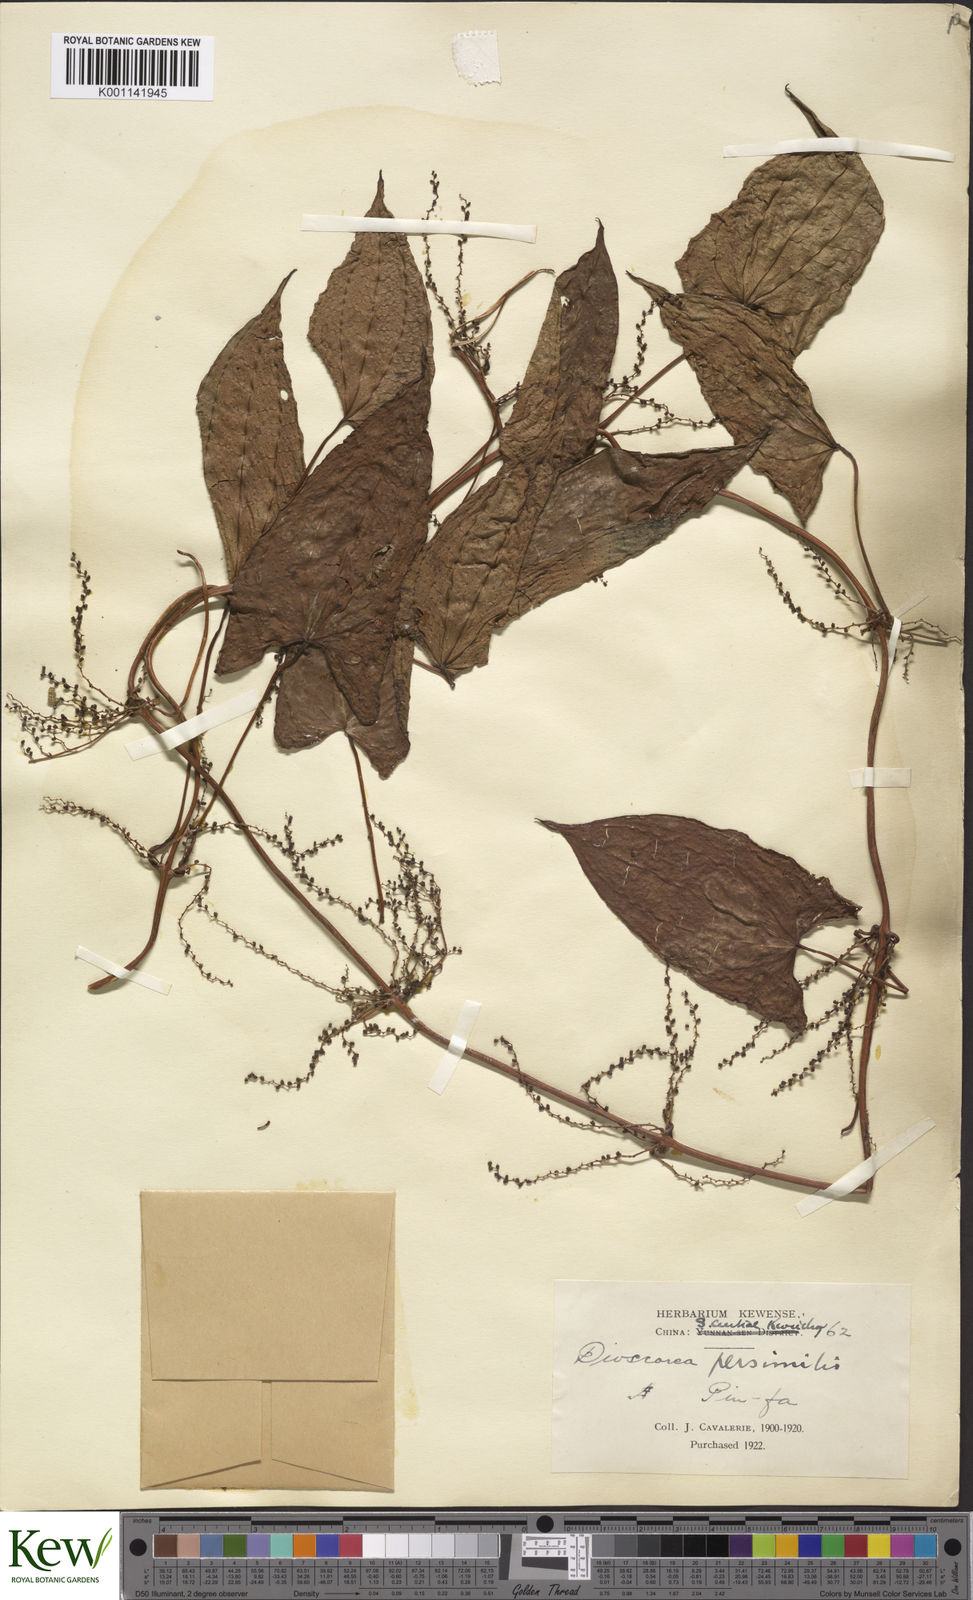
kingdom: Plantae
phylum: Tracheophyta
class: Liliopsida
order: Dioscoreales
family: Dioscoreaceae
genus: Dioscorea
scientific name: Dioscorea hamiltonii
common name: Mountain yam
